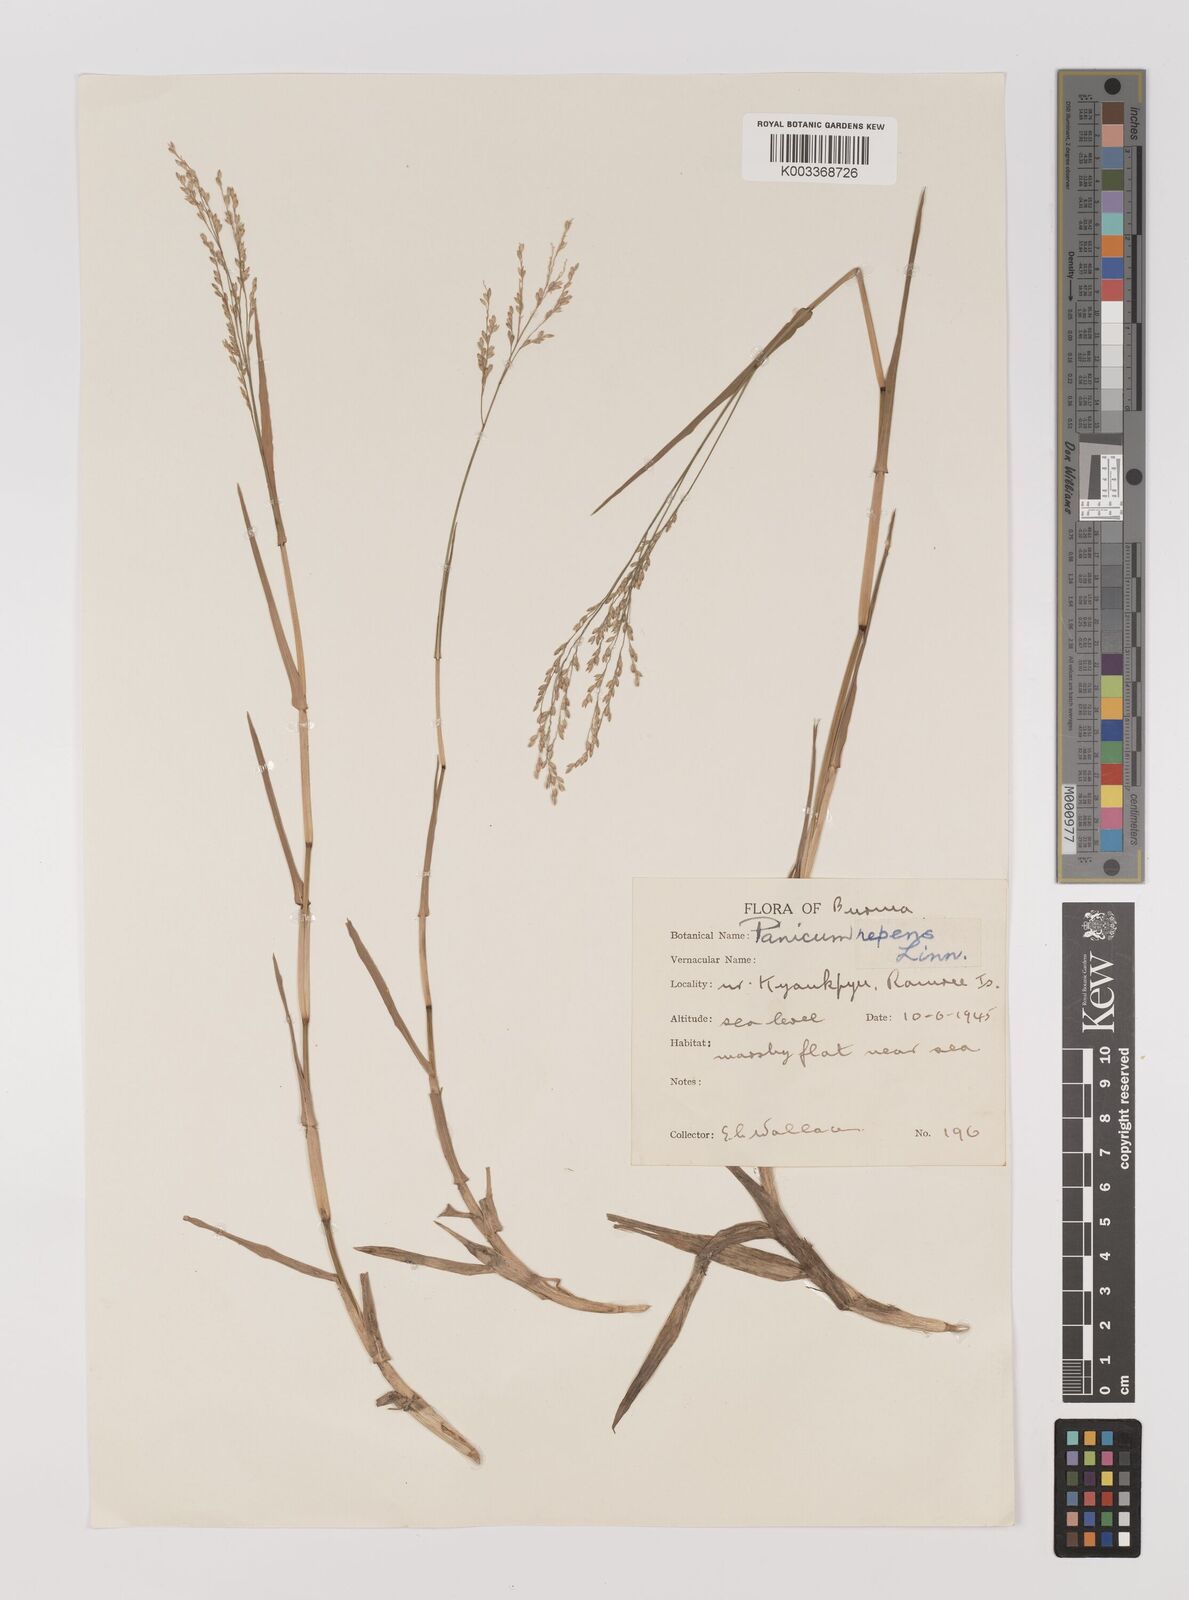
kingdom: Plantae
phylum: Tracheophyta
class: Liliopsida
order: Poales
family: Poaceae
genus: Panicum
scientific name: Panicum repens
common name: Torpedo grass
